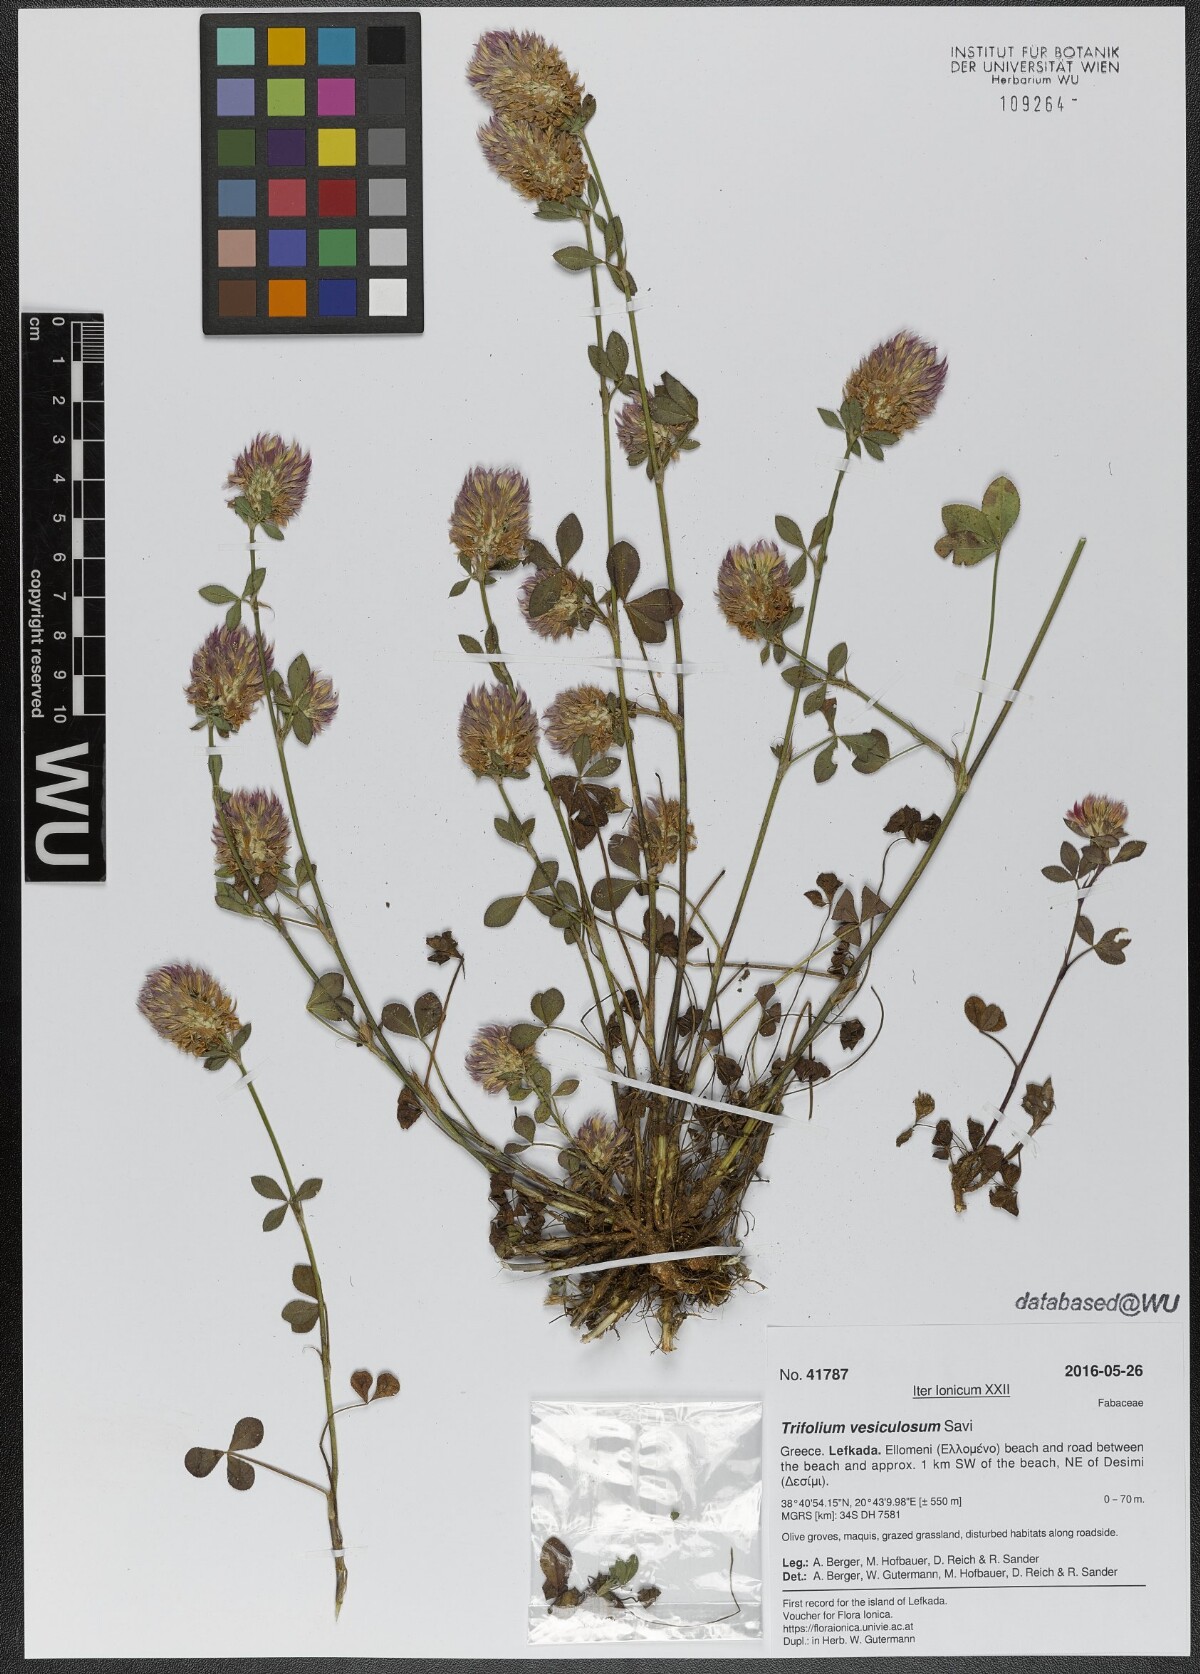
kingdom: Plantae
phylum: Tracheophyta
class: Magnoliopsida
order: Fabales
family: Fabaceae
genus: Trifolium
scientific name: Trifolium vesiculosum
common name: Arrowleaf clover
